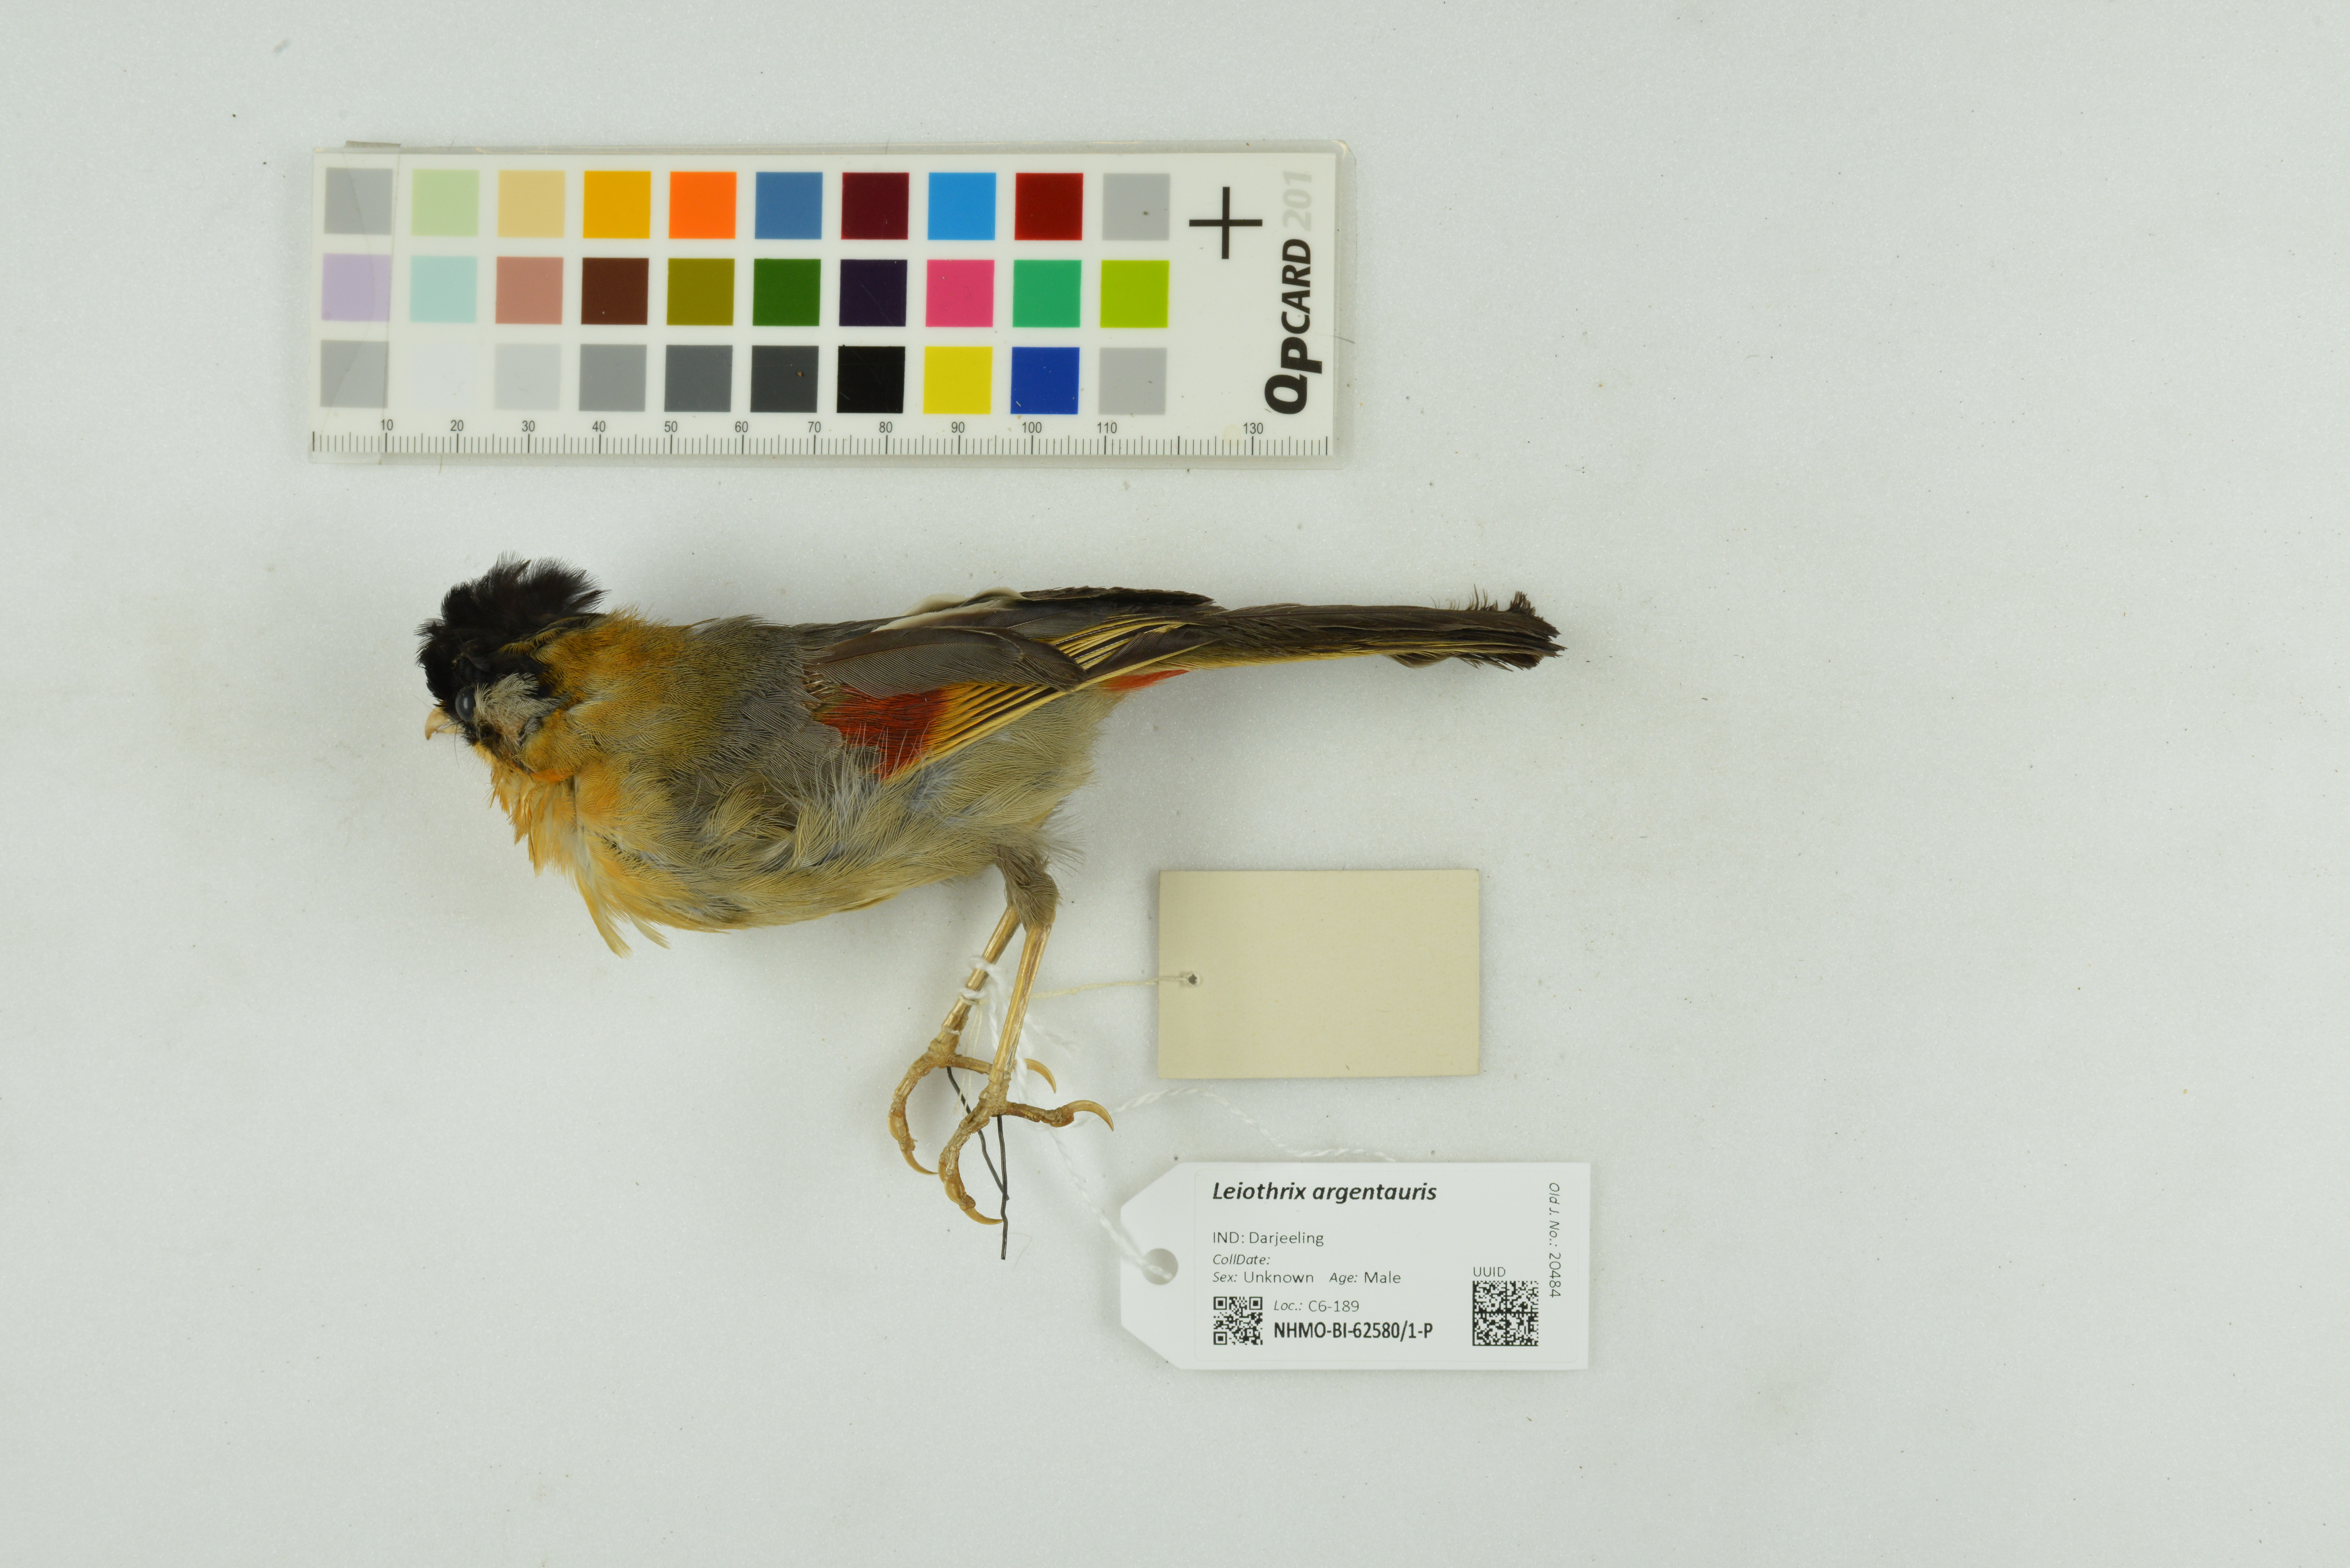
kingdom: Animalia
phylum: Chordata
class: Aves
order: Passeriformes
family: Leiothrichidae
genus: Leiothrix
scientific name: Leiothrix argentauris
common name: Silver-eared mesia
